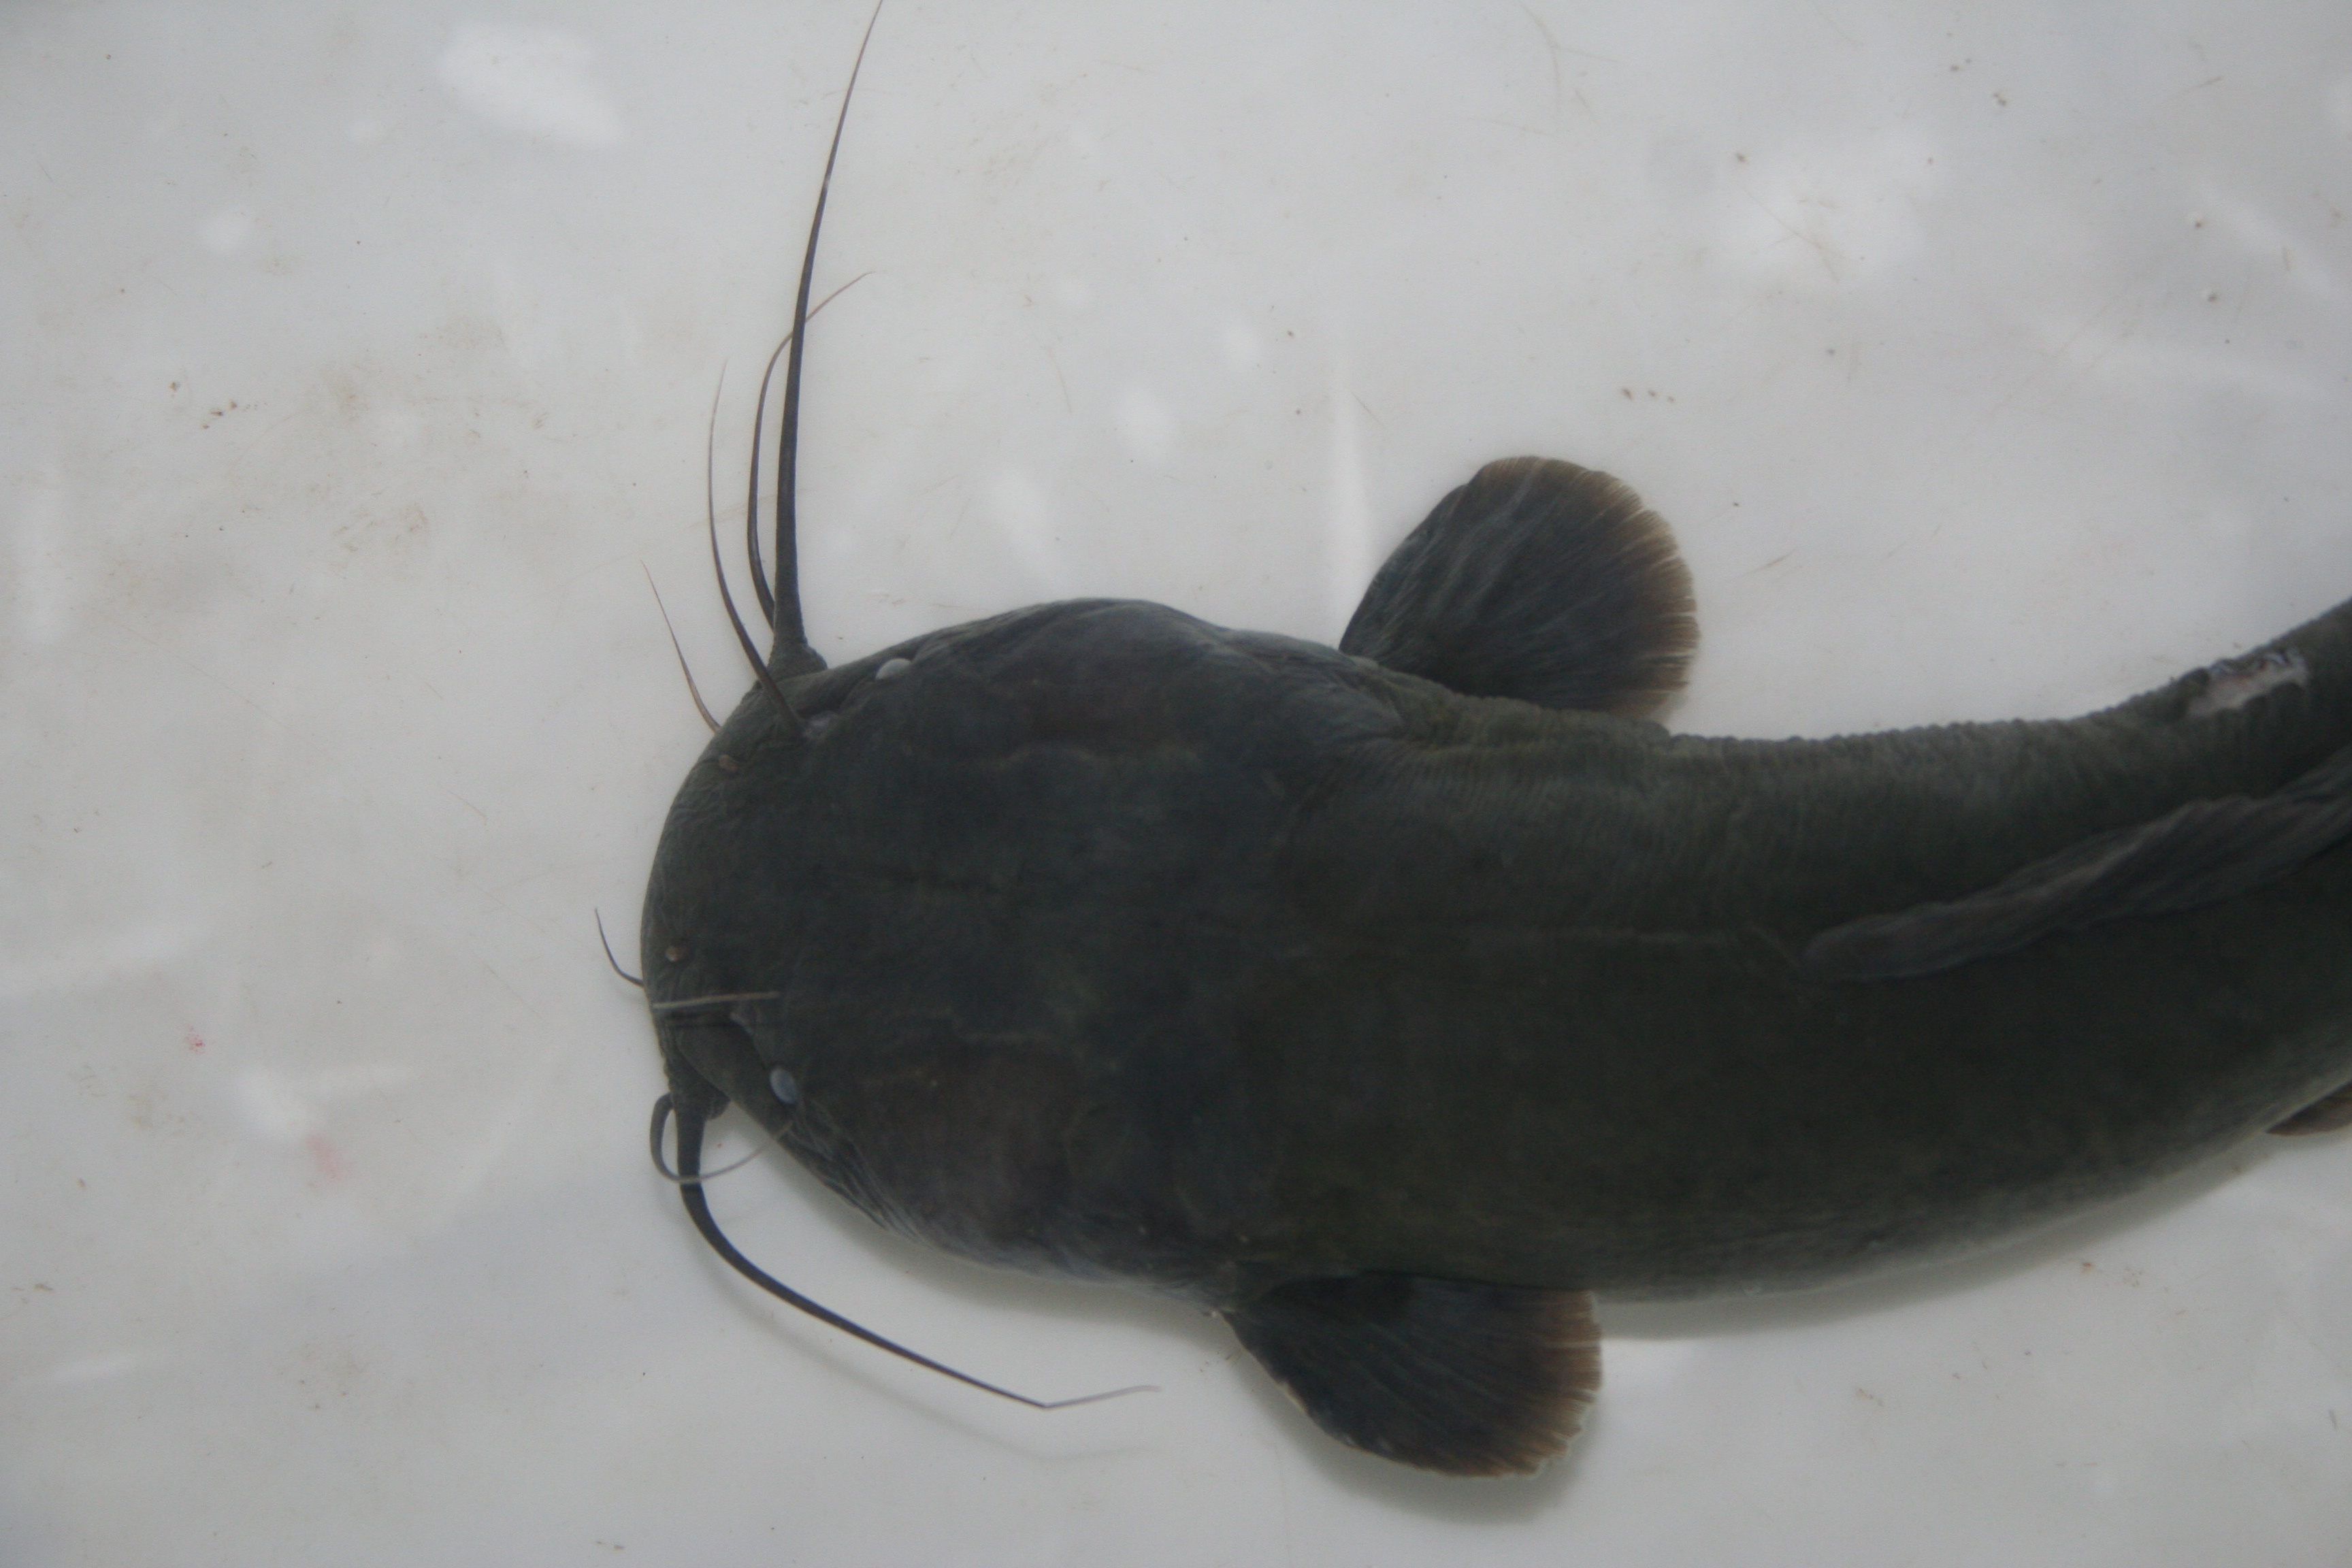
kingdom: Animalia
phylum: Chordata
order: Siluriformes
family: Clariidae
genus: Clarias
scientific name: Clarias
